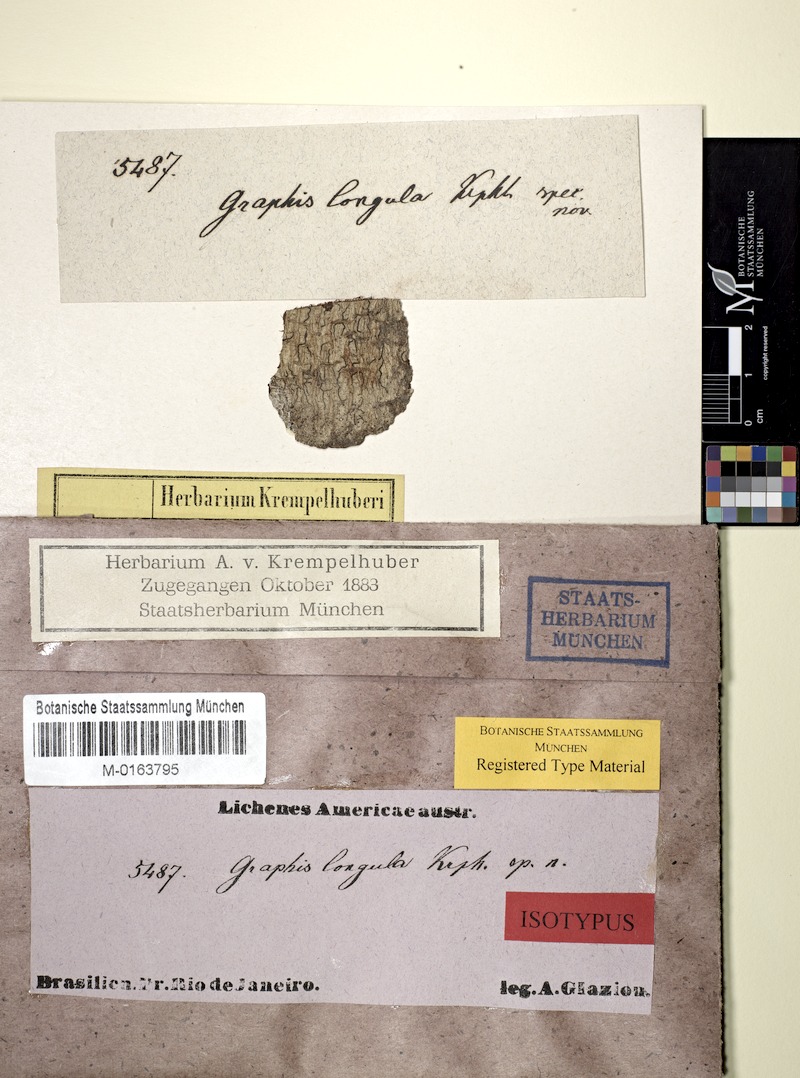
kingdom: Fungi
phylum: Ascomycota
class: Lecanoromycetes
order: Ostropales
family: Graphidaceae
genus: Allographa
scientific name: Allographa longula
